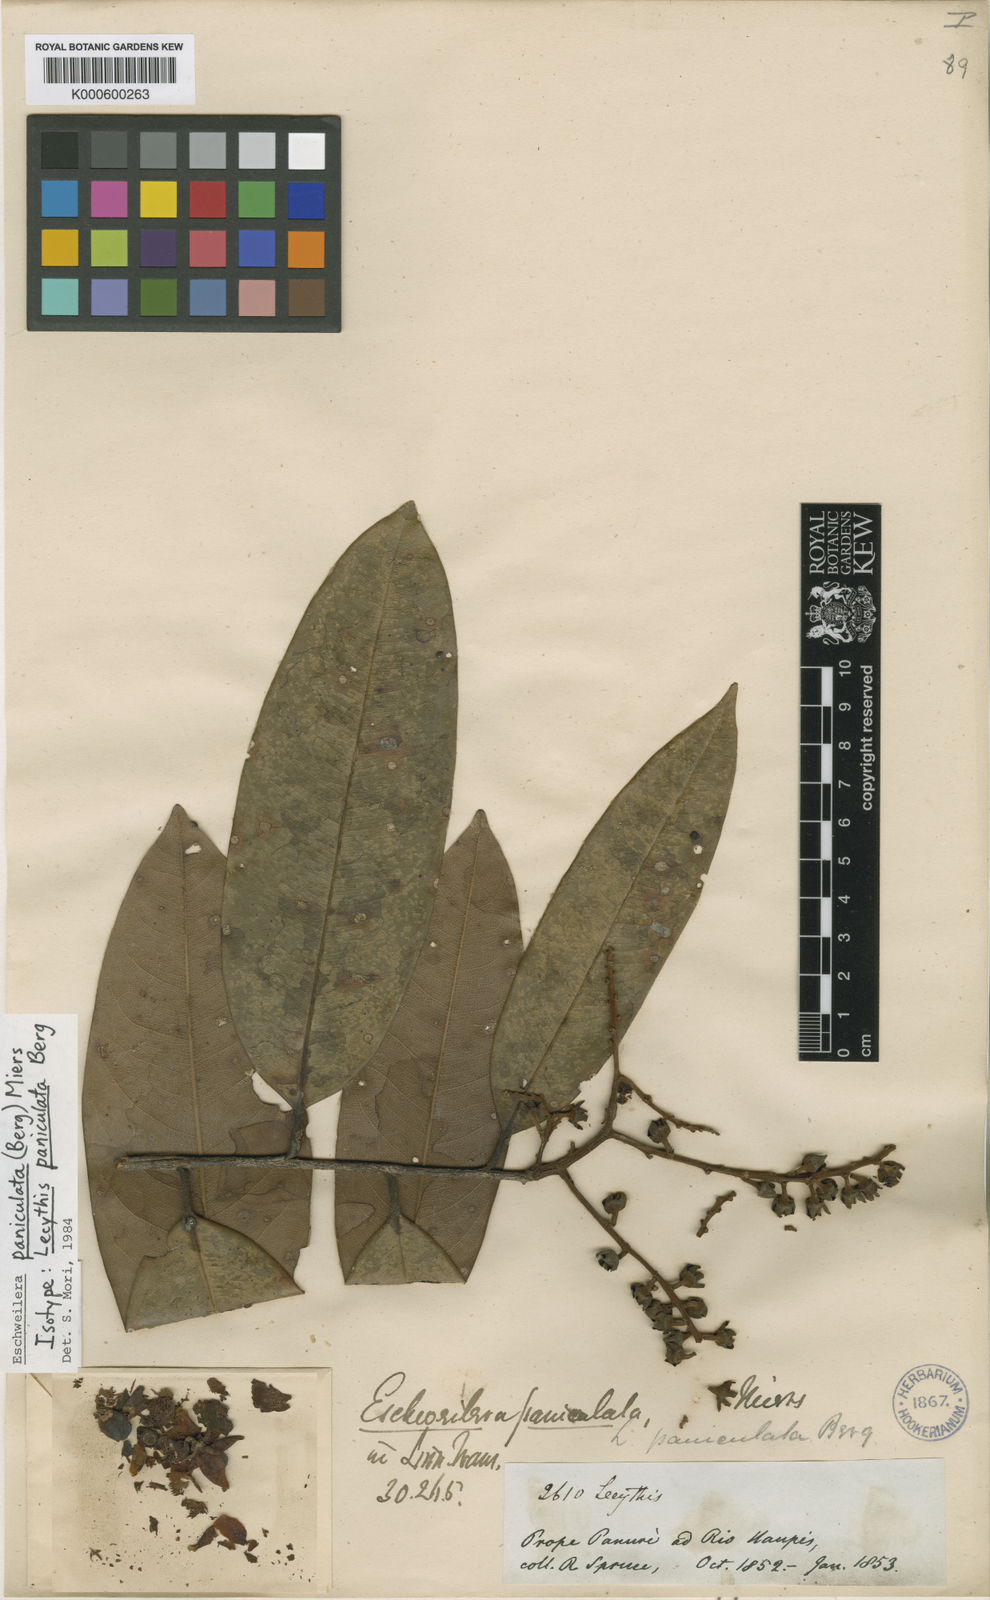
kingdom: Plantae
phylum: Tracheophyta
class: Magnoliopsida
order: Ericales
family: Lecythidaceae
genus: Eschweilera
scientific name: Eschweilera paniculata
